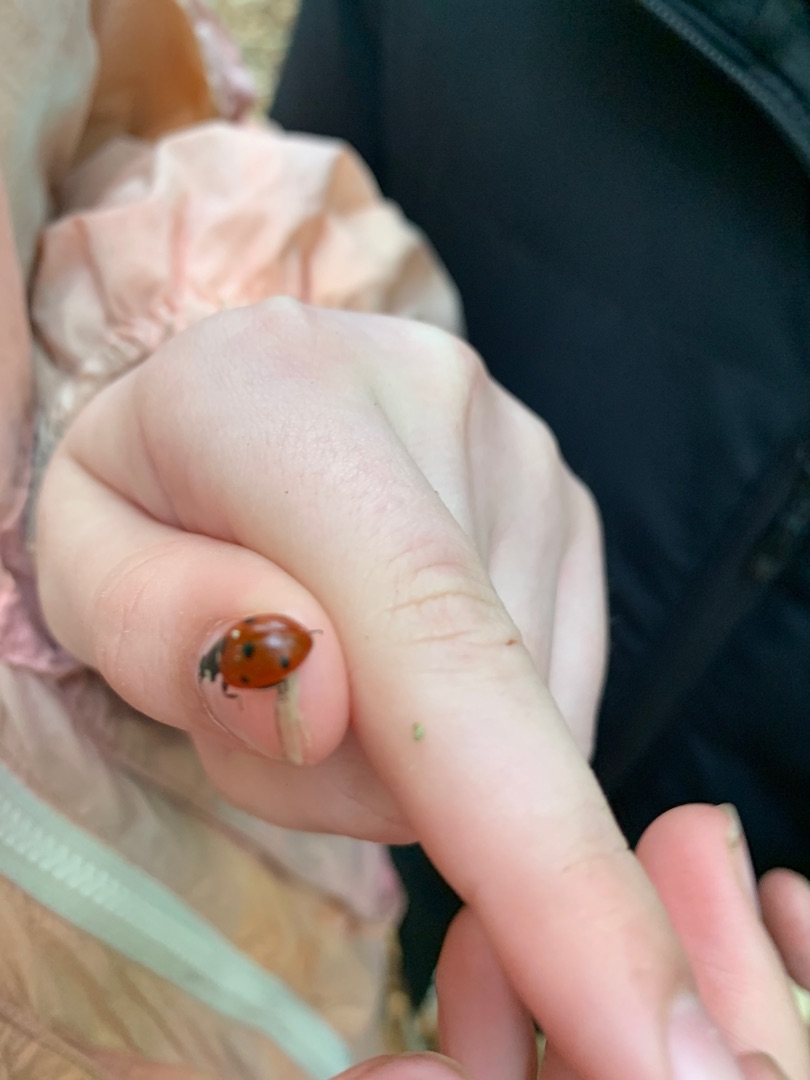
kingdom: Animalia
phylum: Arthropoda
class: Insecta
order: Coleoptera
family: Coccinellidae
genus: Coccinella
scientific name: Coccinella septempunctata
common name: Syvplettet mariehøne
